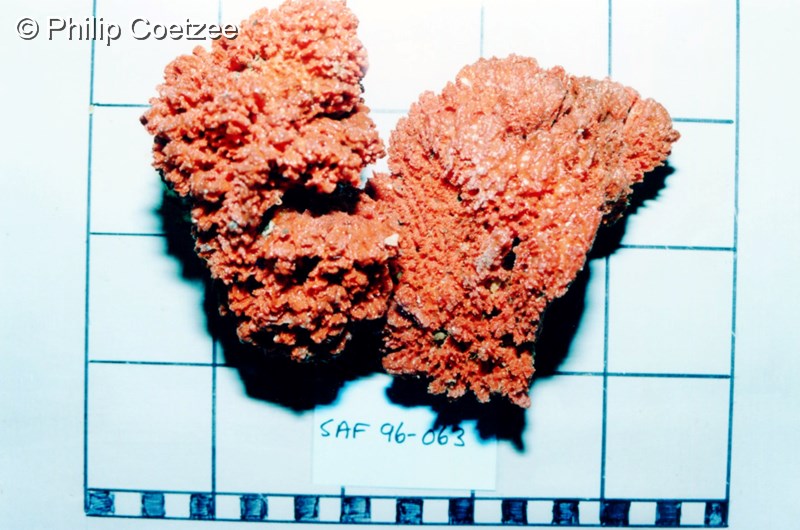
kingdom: Animalia
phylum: Porifera
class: Demospongiae
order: Poecilosclerida
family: Microcionidae
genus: Clathria
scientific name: Clathria vulpina
